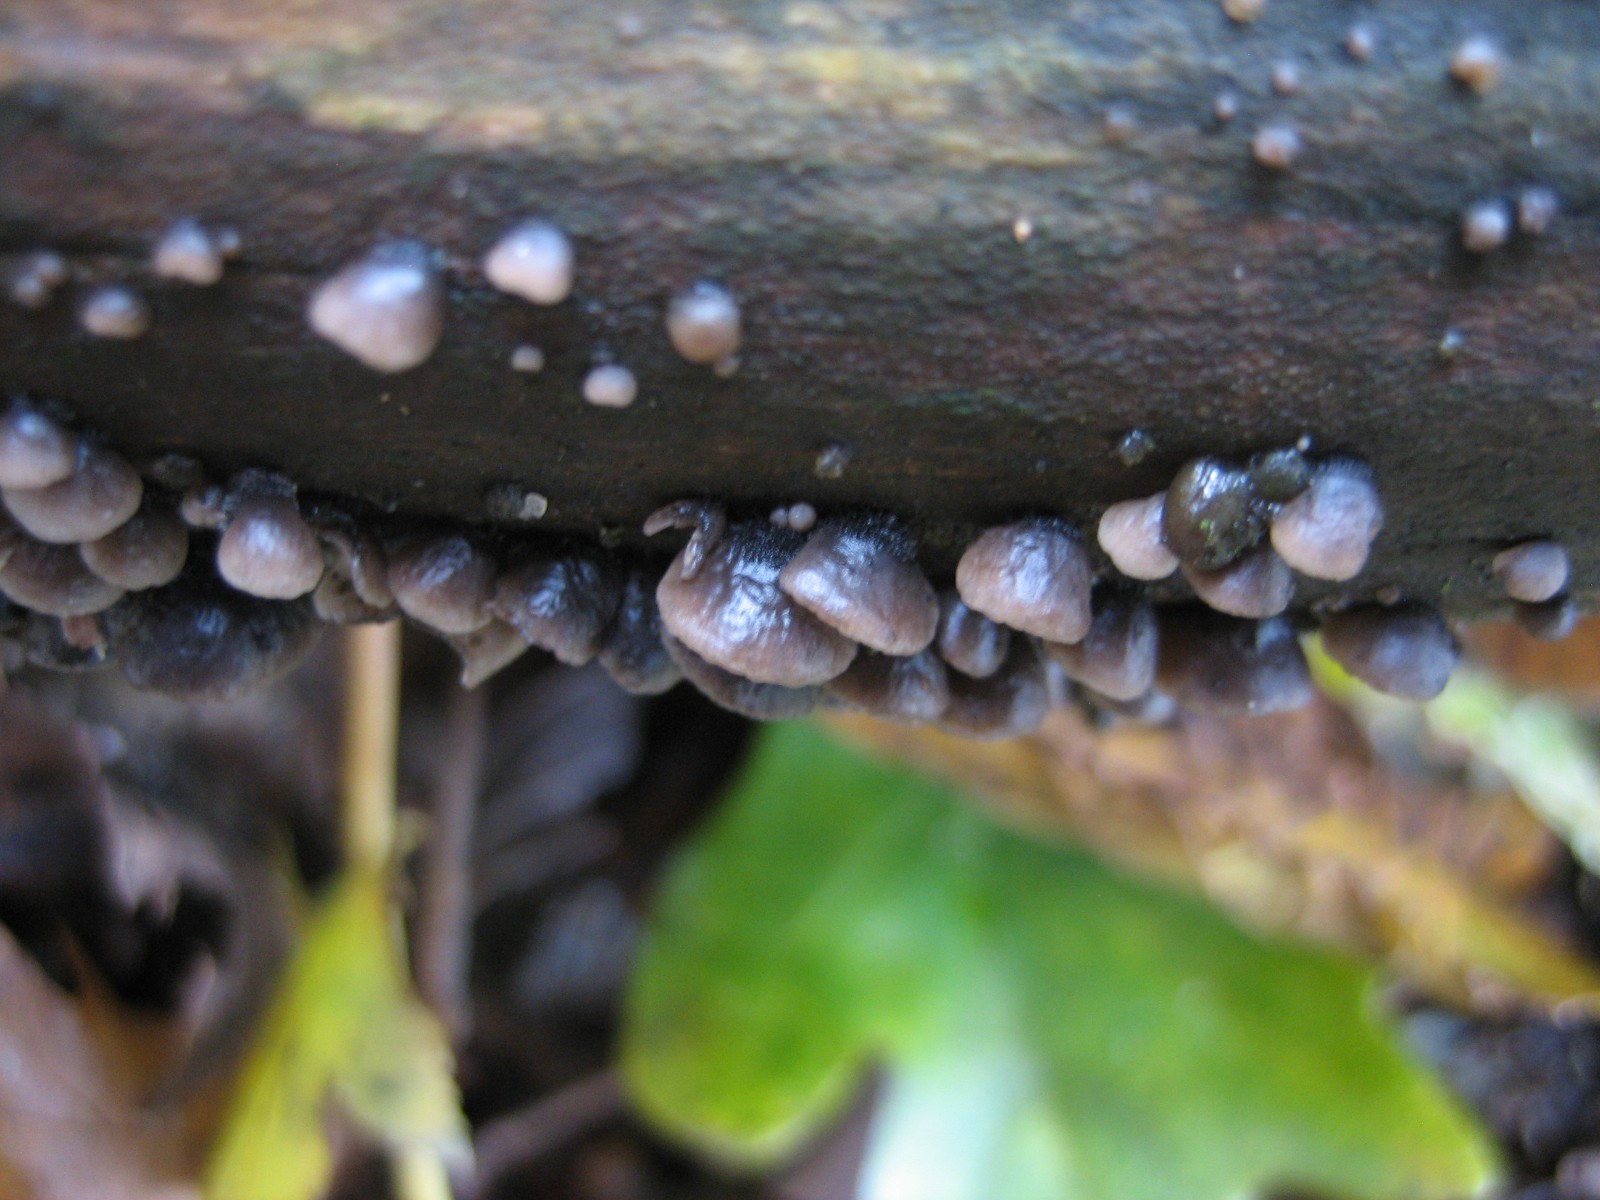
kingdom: Fungi
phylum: Basidiomycota
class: Agaricomycetes
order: Agaricales
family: Pleurotaceae
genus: Resupinatus
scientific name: Resupinatus trichotis
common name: mørkfiltet barkhat
